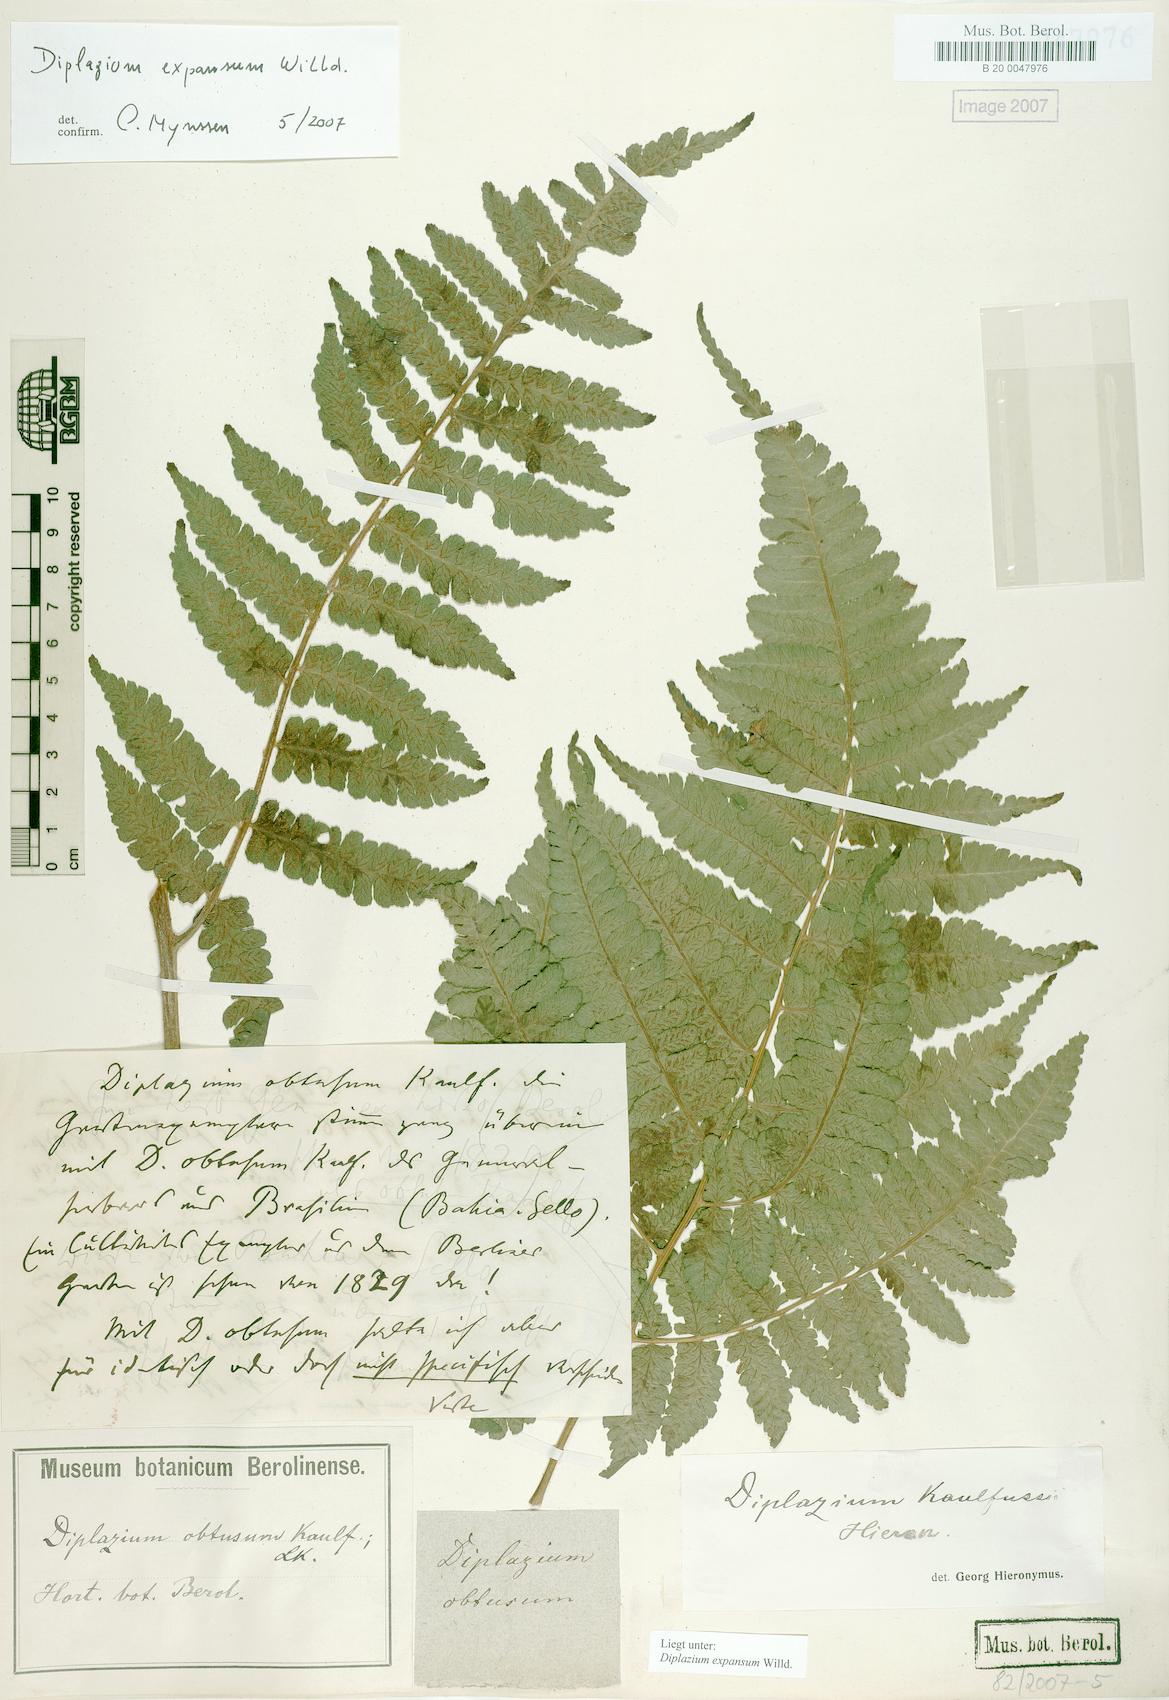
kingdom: Plantae
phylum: Tracheophyta
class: Polypodiopsida
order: Polypodiales
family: Athyriaceae
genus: Diplazium
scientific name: Diplazium expansum
